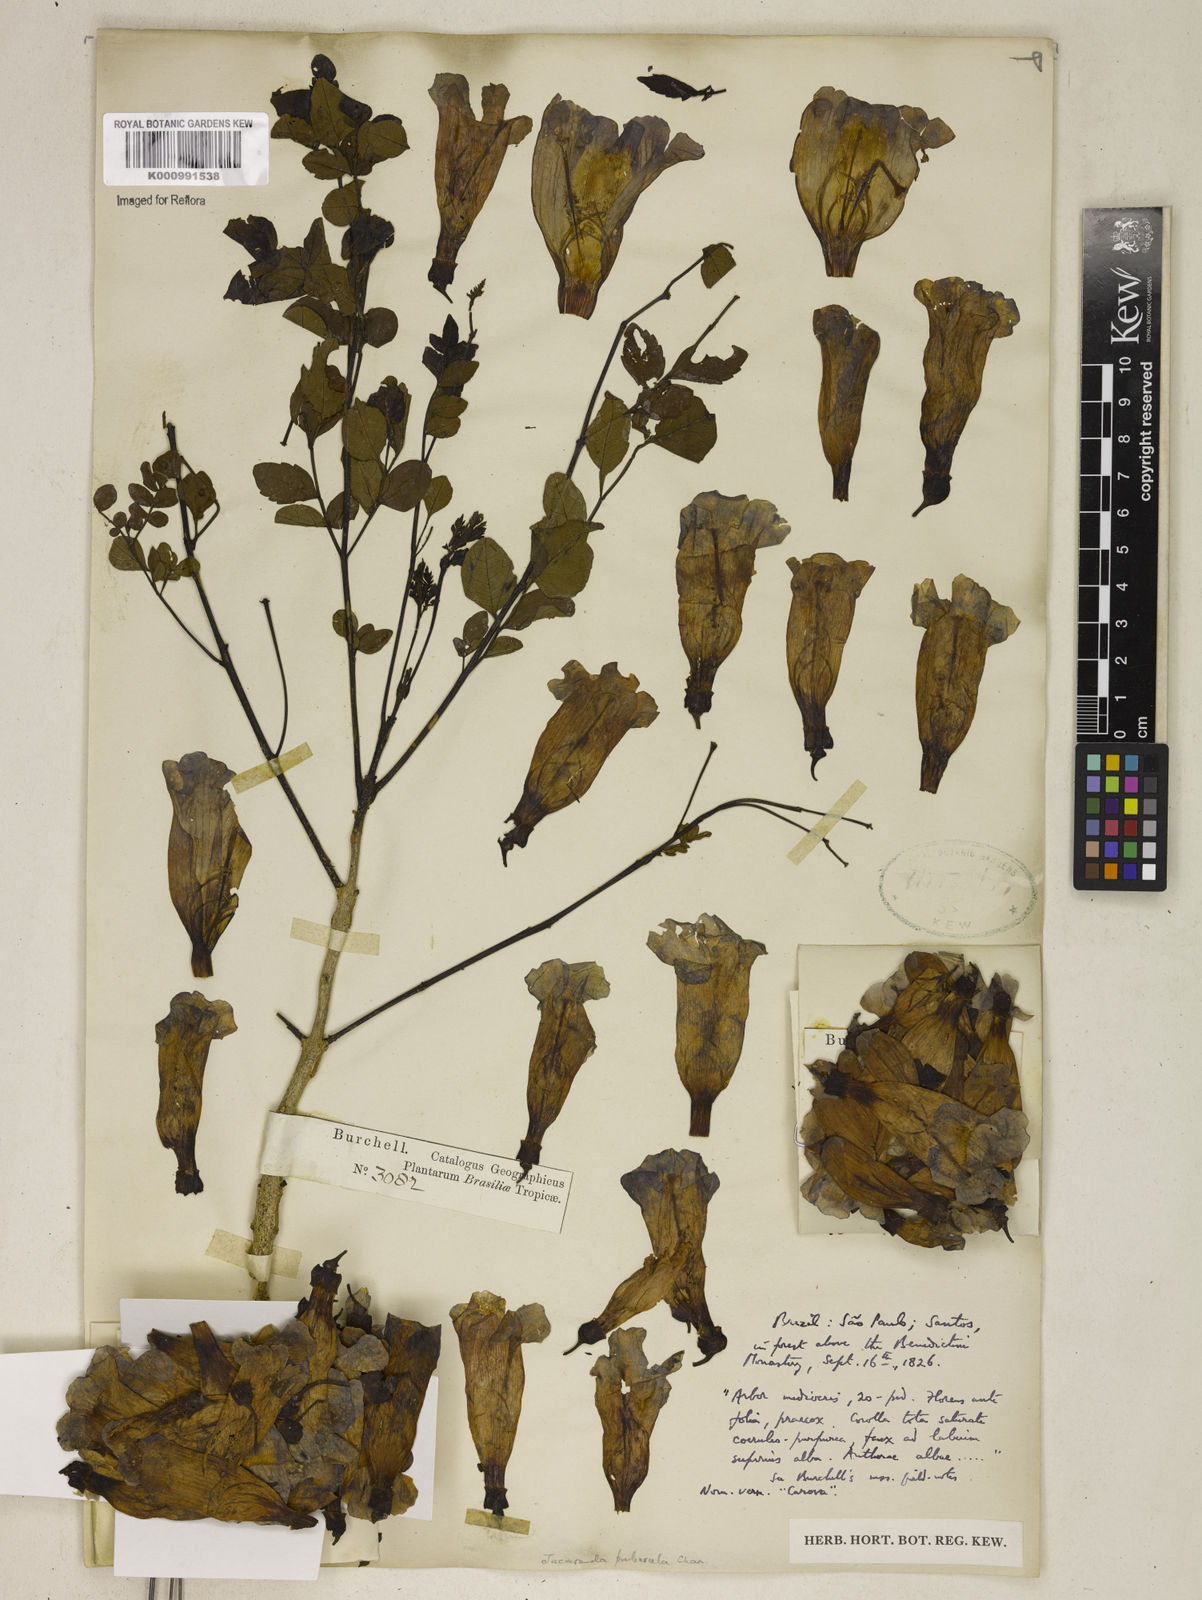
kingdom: Plantae
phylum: Tracheophyta
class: Magnoliopsida
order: Lamiales
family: Bignoniaceae
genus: Jacaranda
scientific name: Jacaranda puberula
